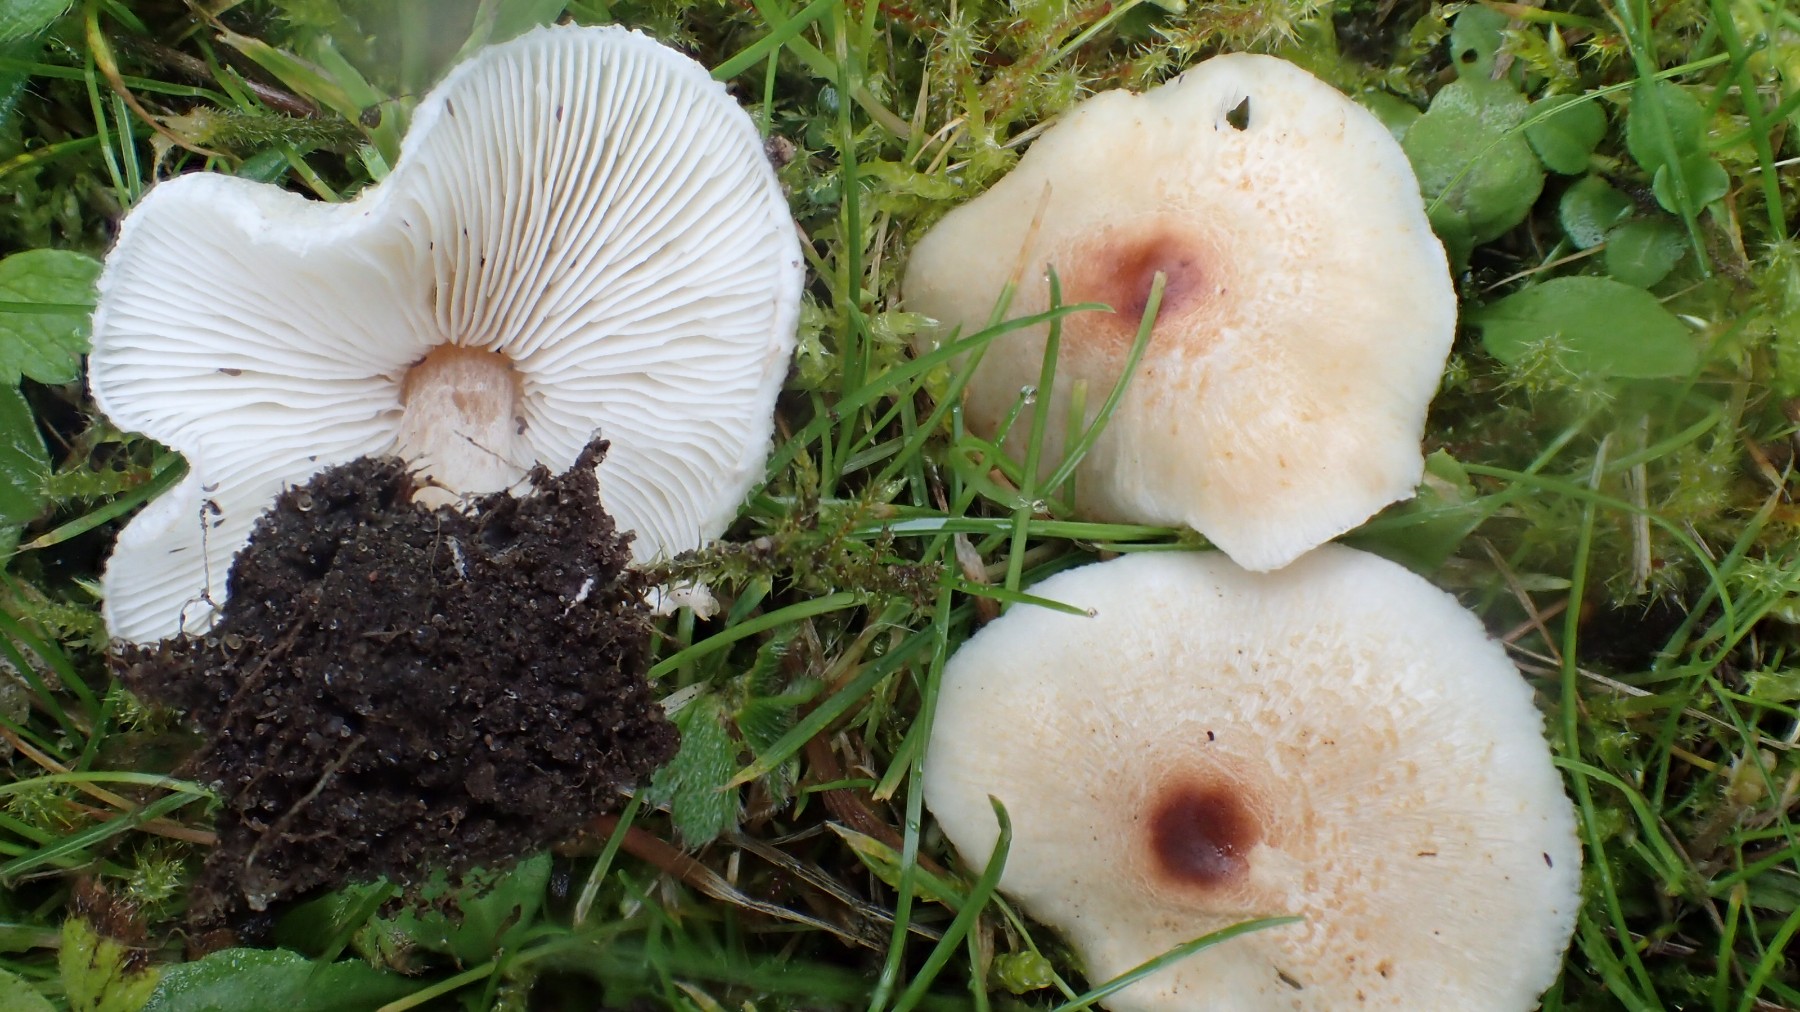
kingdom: Fungi
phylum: Basidiomycota
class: Agaricomycetes
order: Agaricales
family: Agaricaceae
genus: Lepiota
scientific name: Lepiota cristata
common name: stinkende parasolhat
